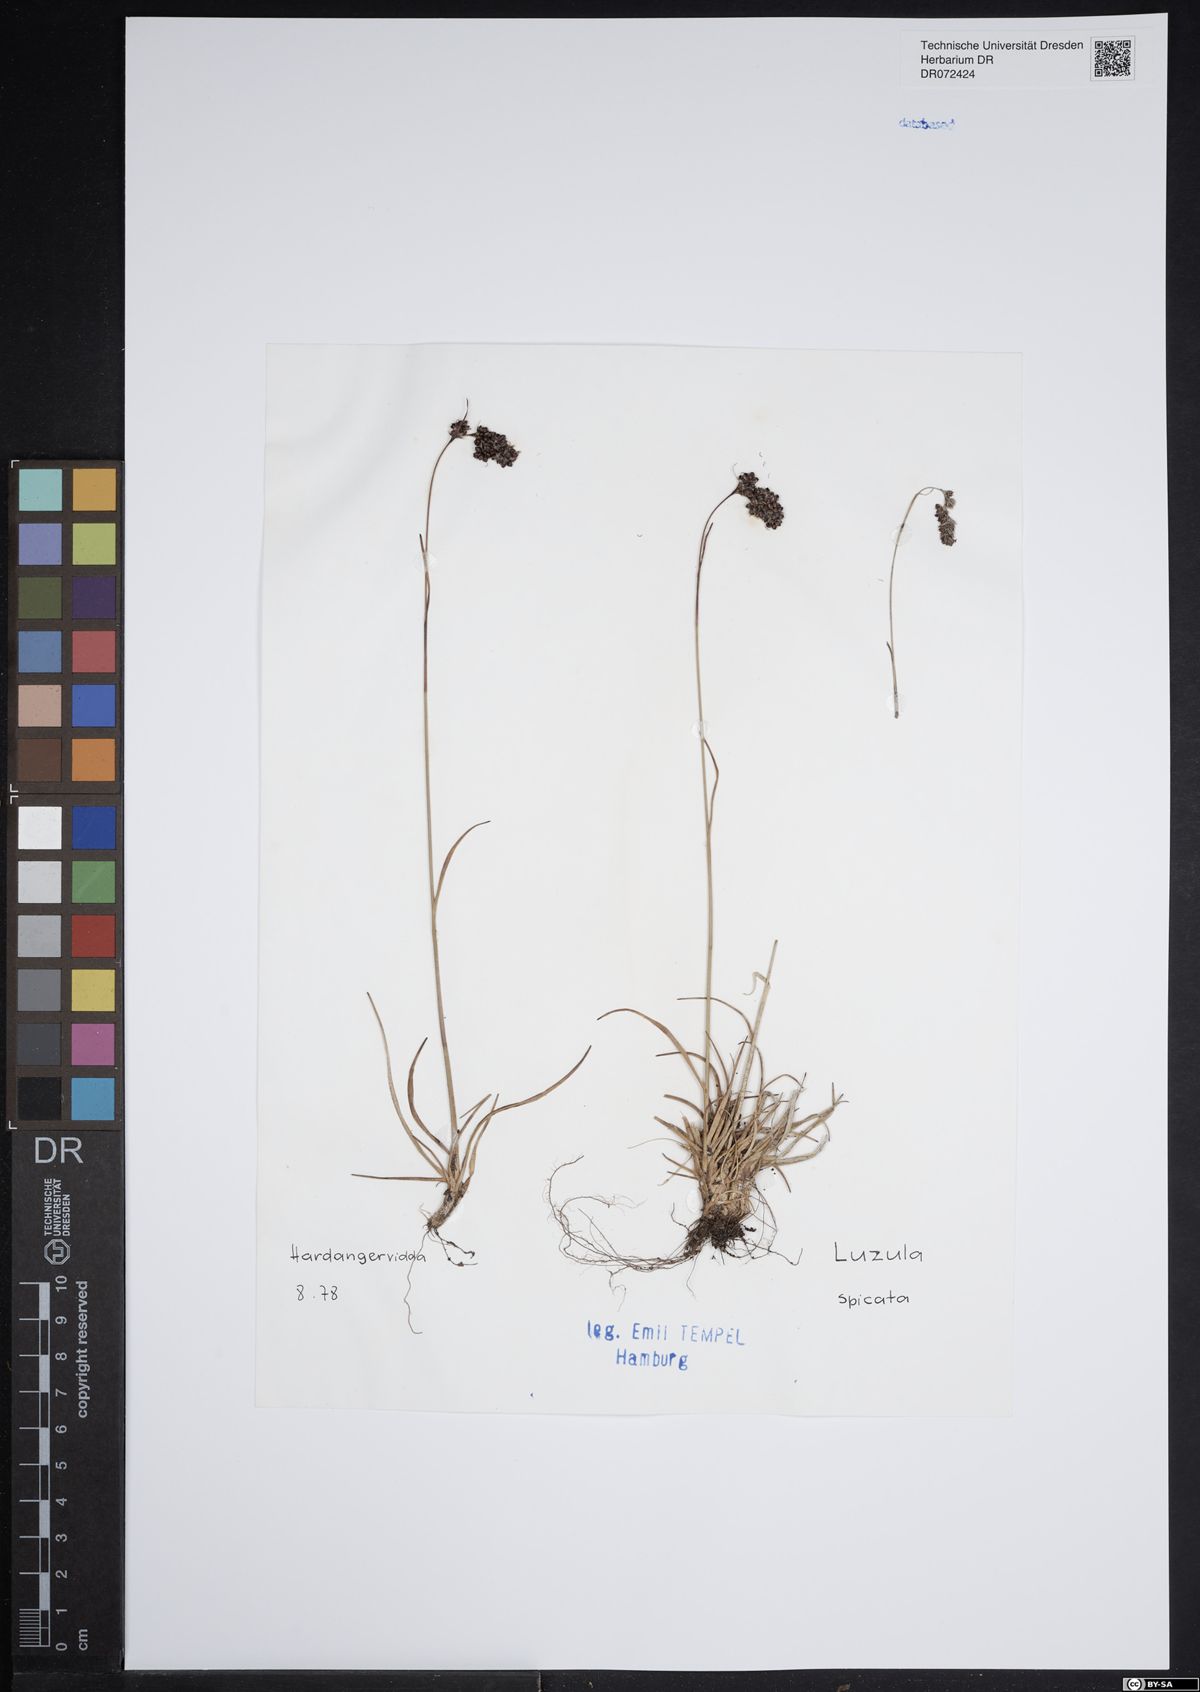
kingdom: Plantae
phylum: Tracheophyta
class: Liliopsida
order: Poales
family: Juncaceae
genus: Luzula
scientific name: Luzula spicata
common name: Spiked wood-rush
